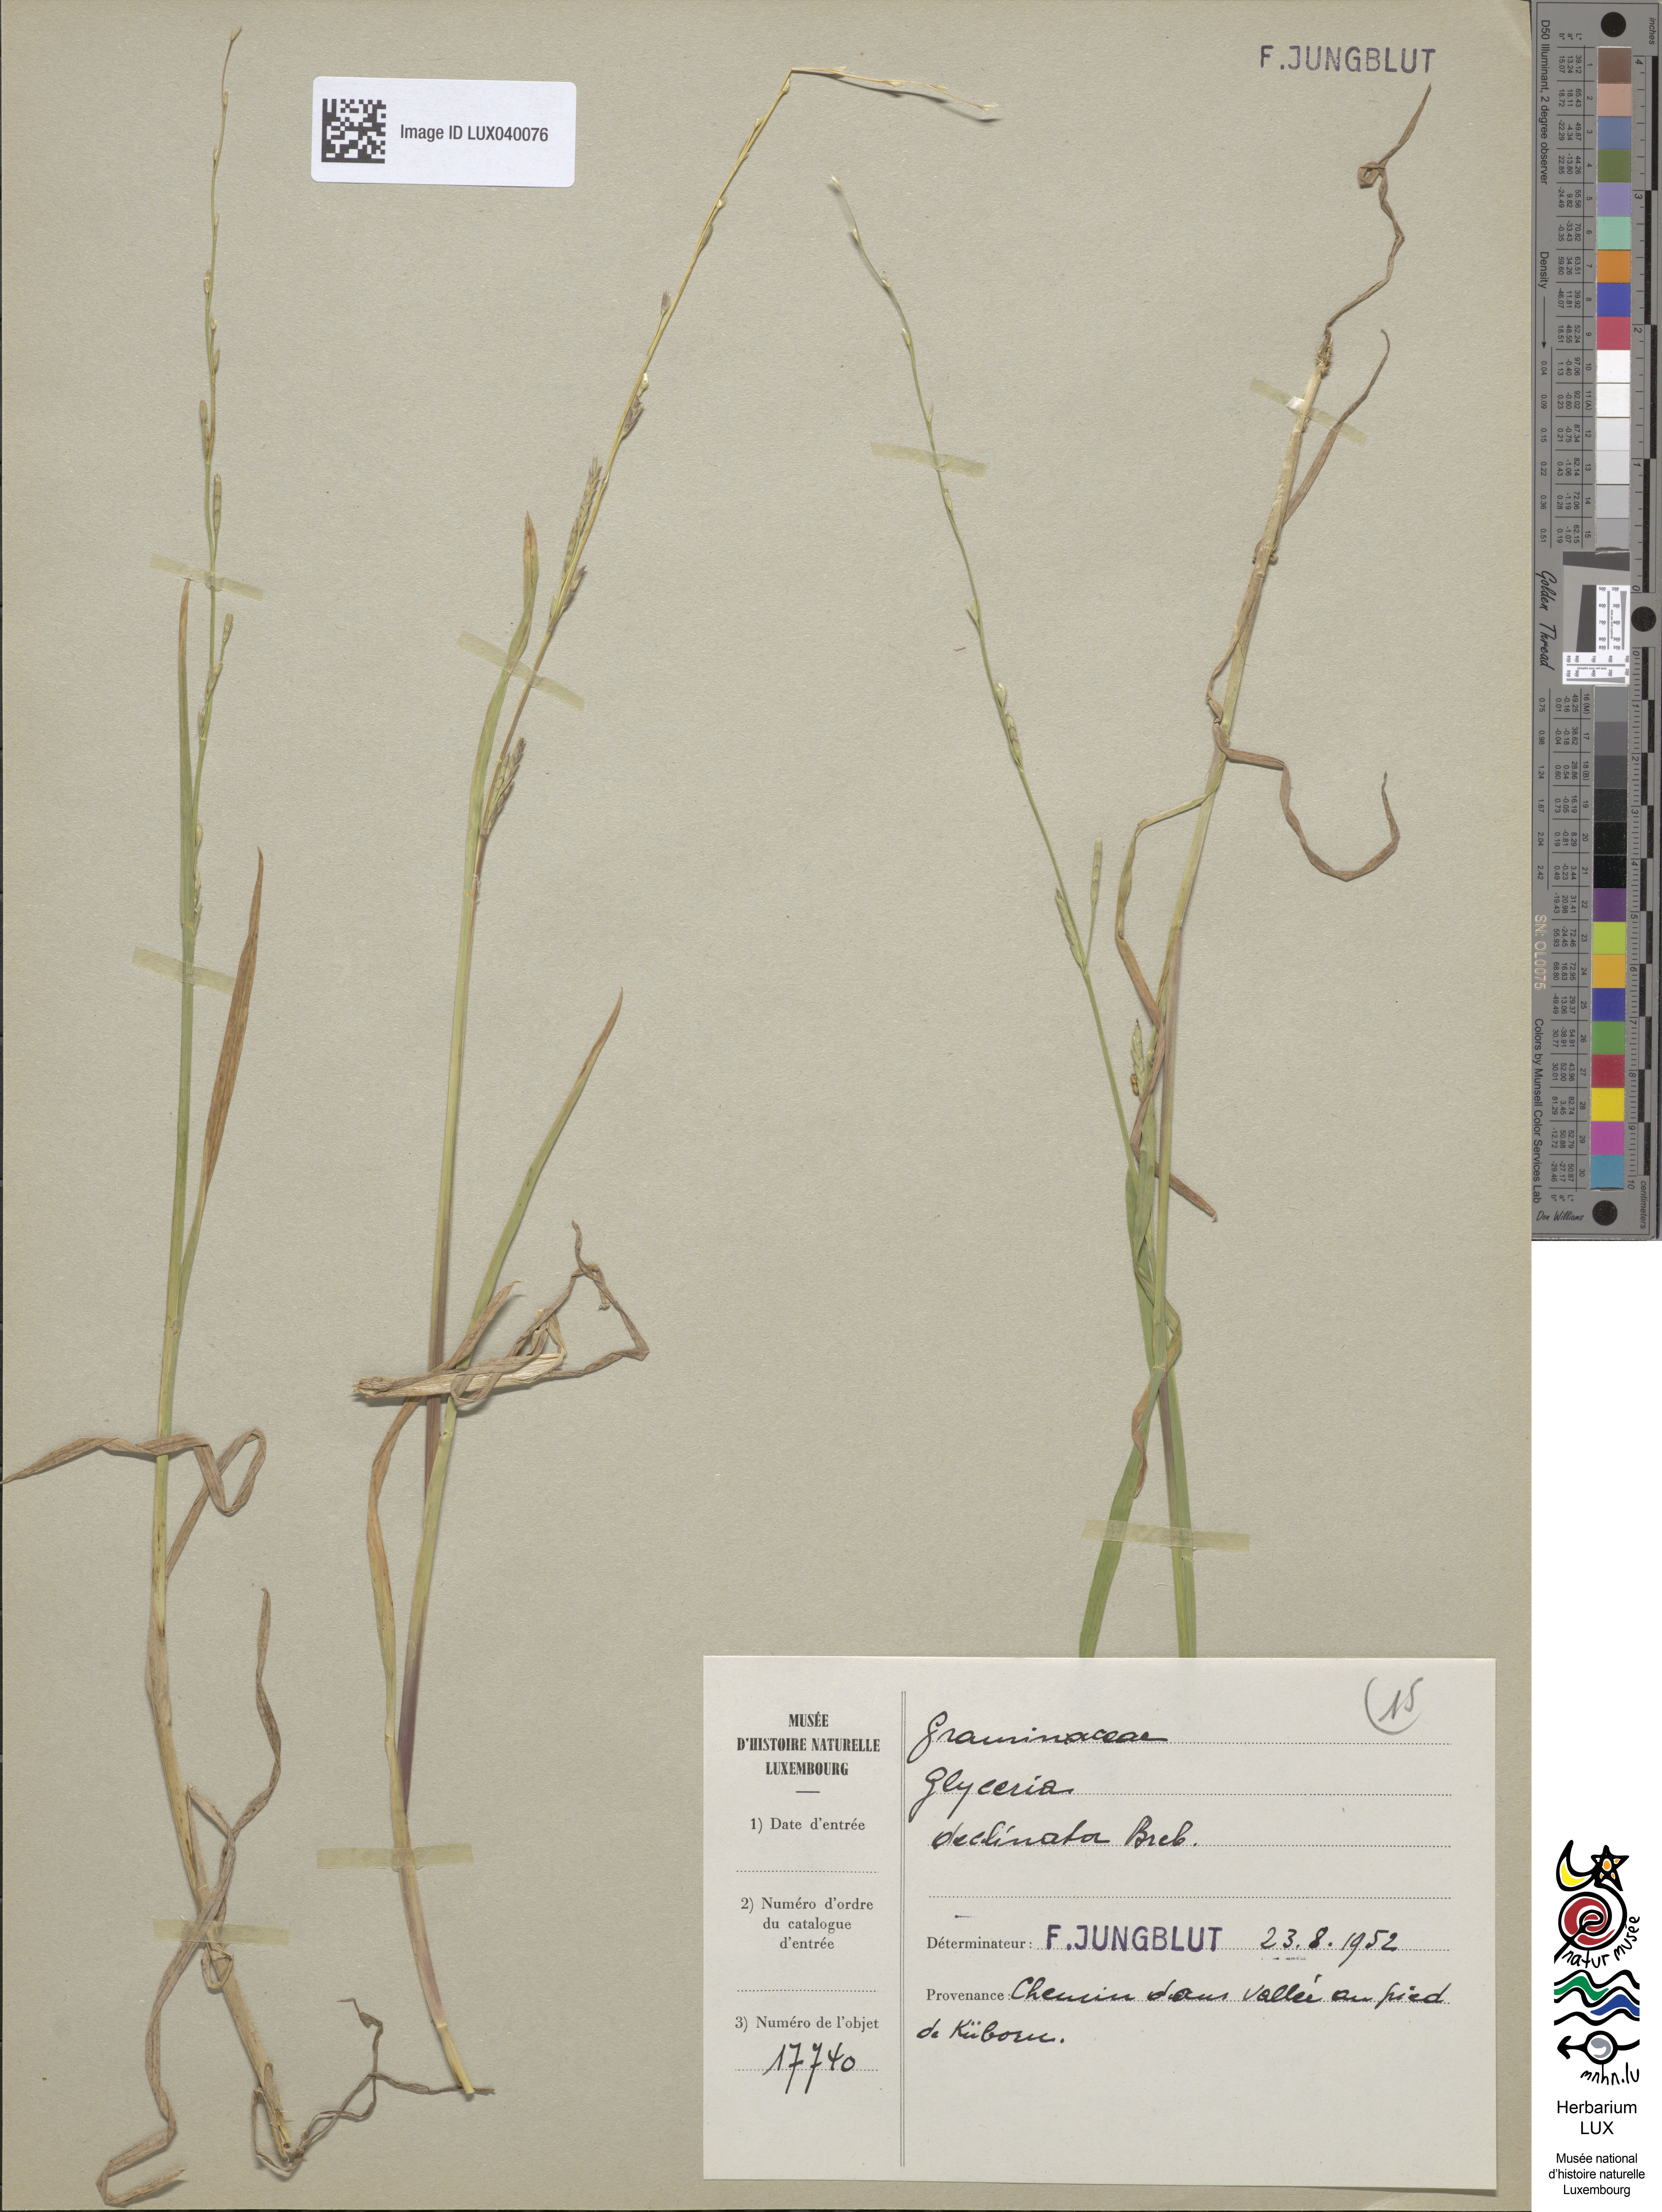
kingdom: Plantae
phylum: Tracheophyta
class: Liliopsida
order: Poales
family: Poaceae
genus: Glyceria
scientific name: Glyceria declinata
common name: Small sweet-grass
